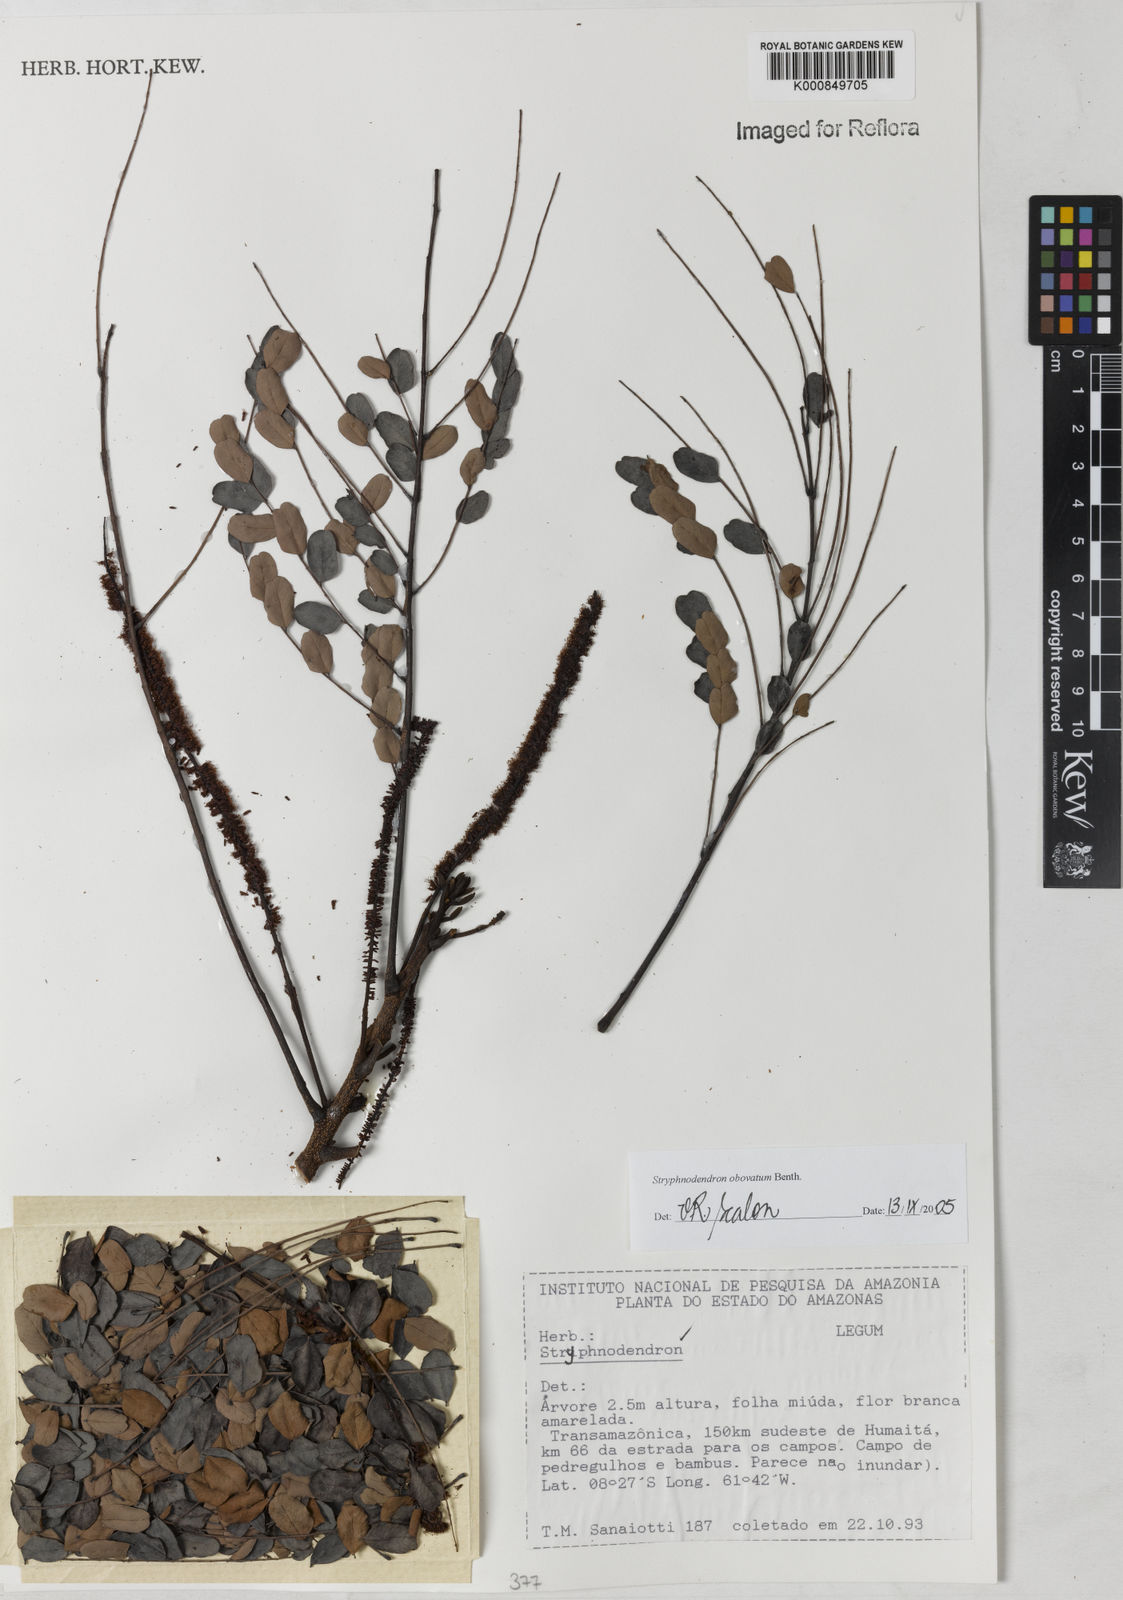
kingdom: Plantae
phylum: Tracheophyta
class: Magnoliopsida
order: Fabales
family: Fabaceae
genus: Stryphnodendron
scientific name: Stryphnodendron rotundifolium
